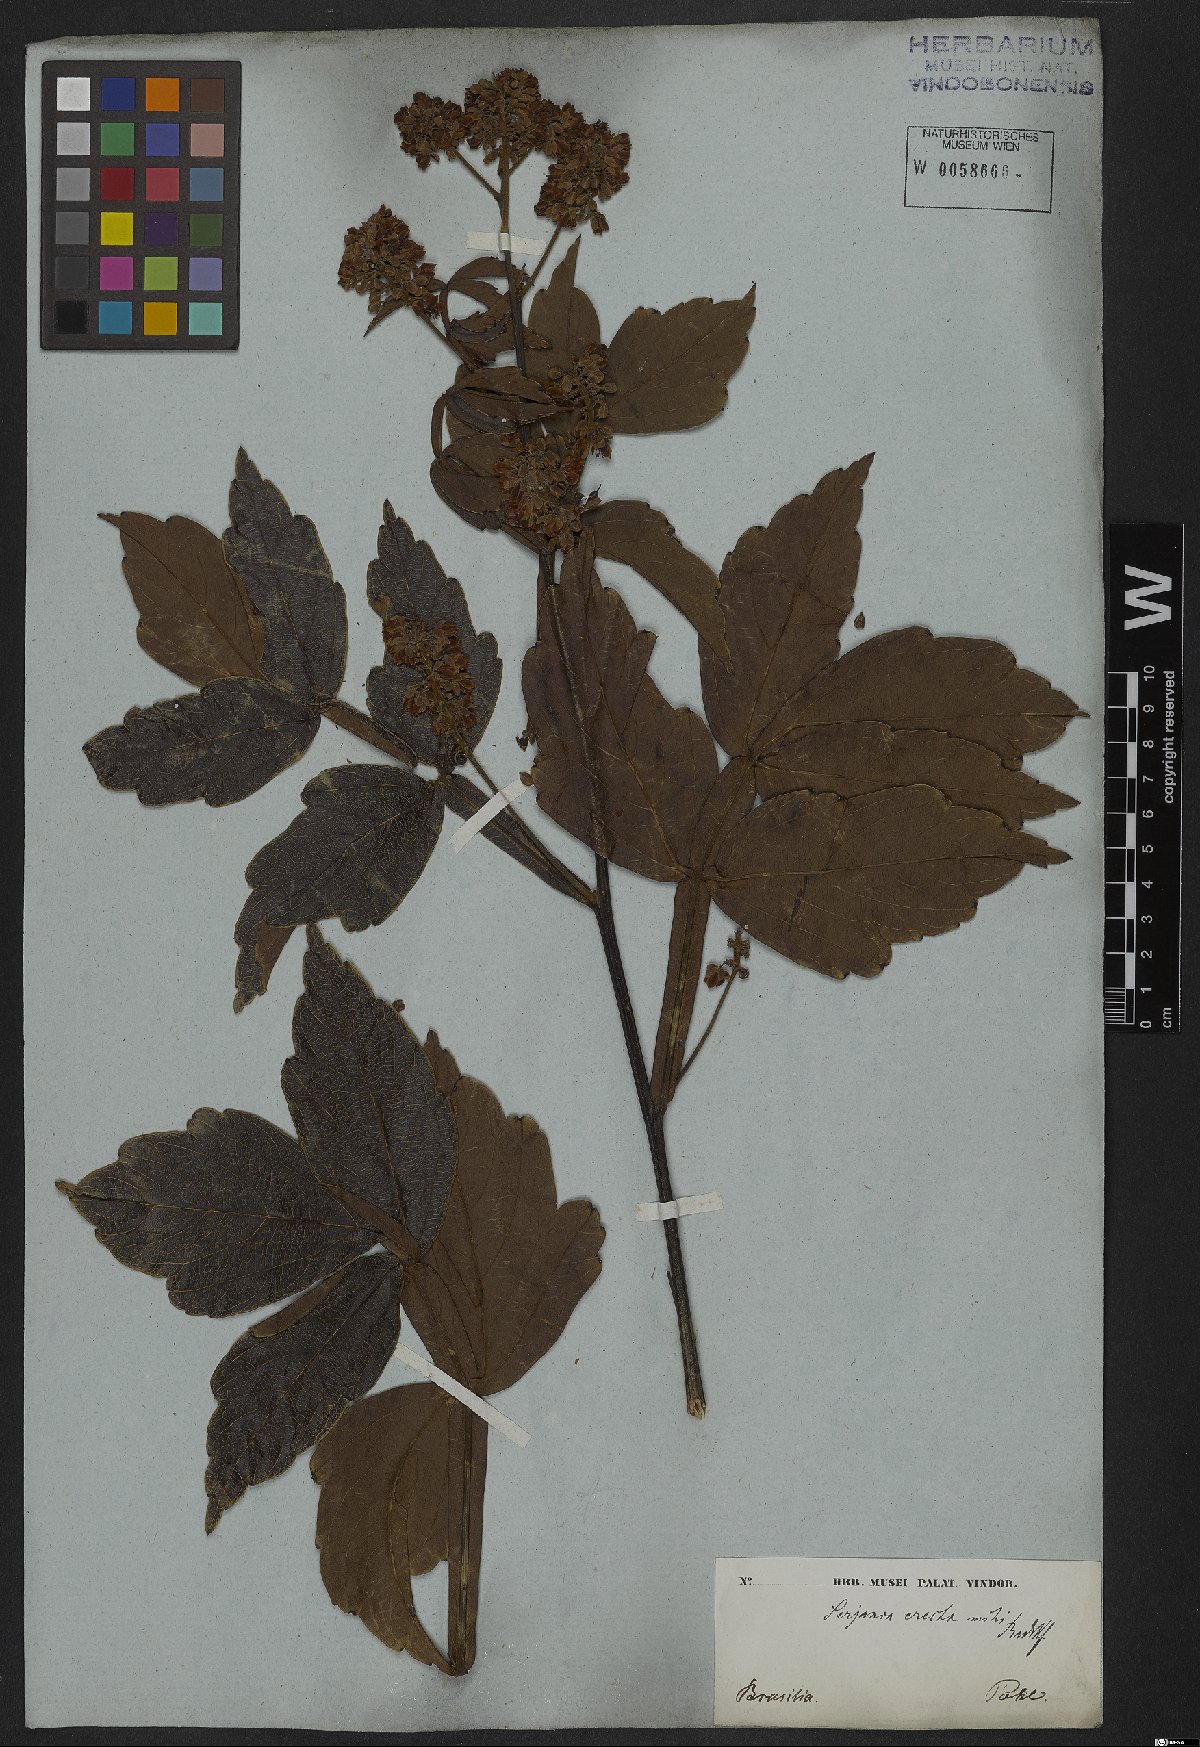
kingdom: Plantae
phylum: Tracheophyta
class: Magnoliopsida
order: Sapindales
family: Sapindaceae
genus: Serjania
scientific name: Serjania erecta
